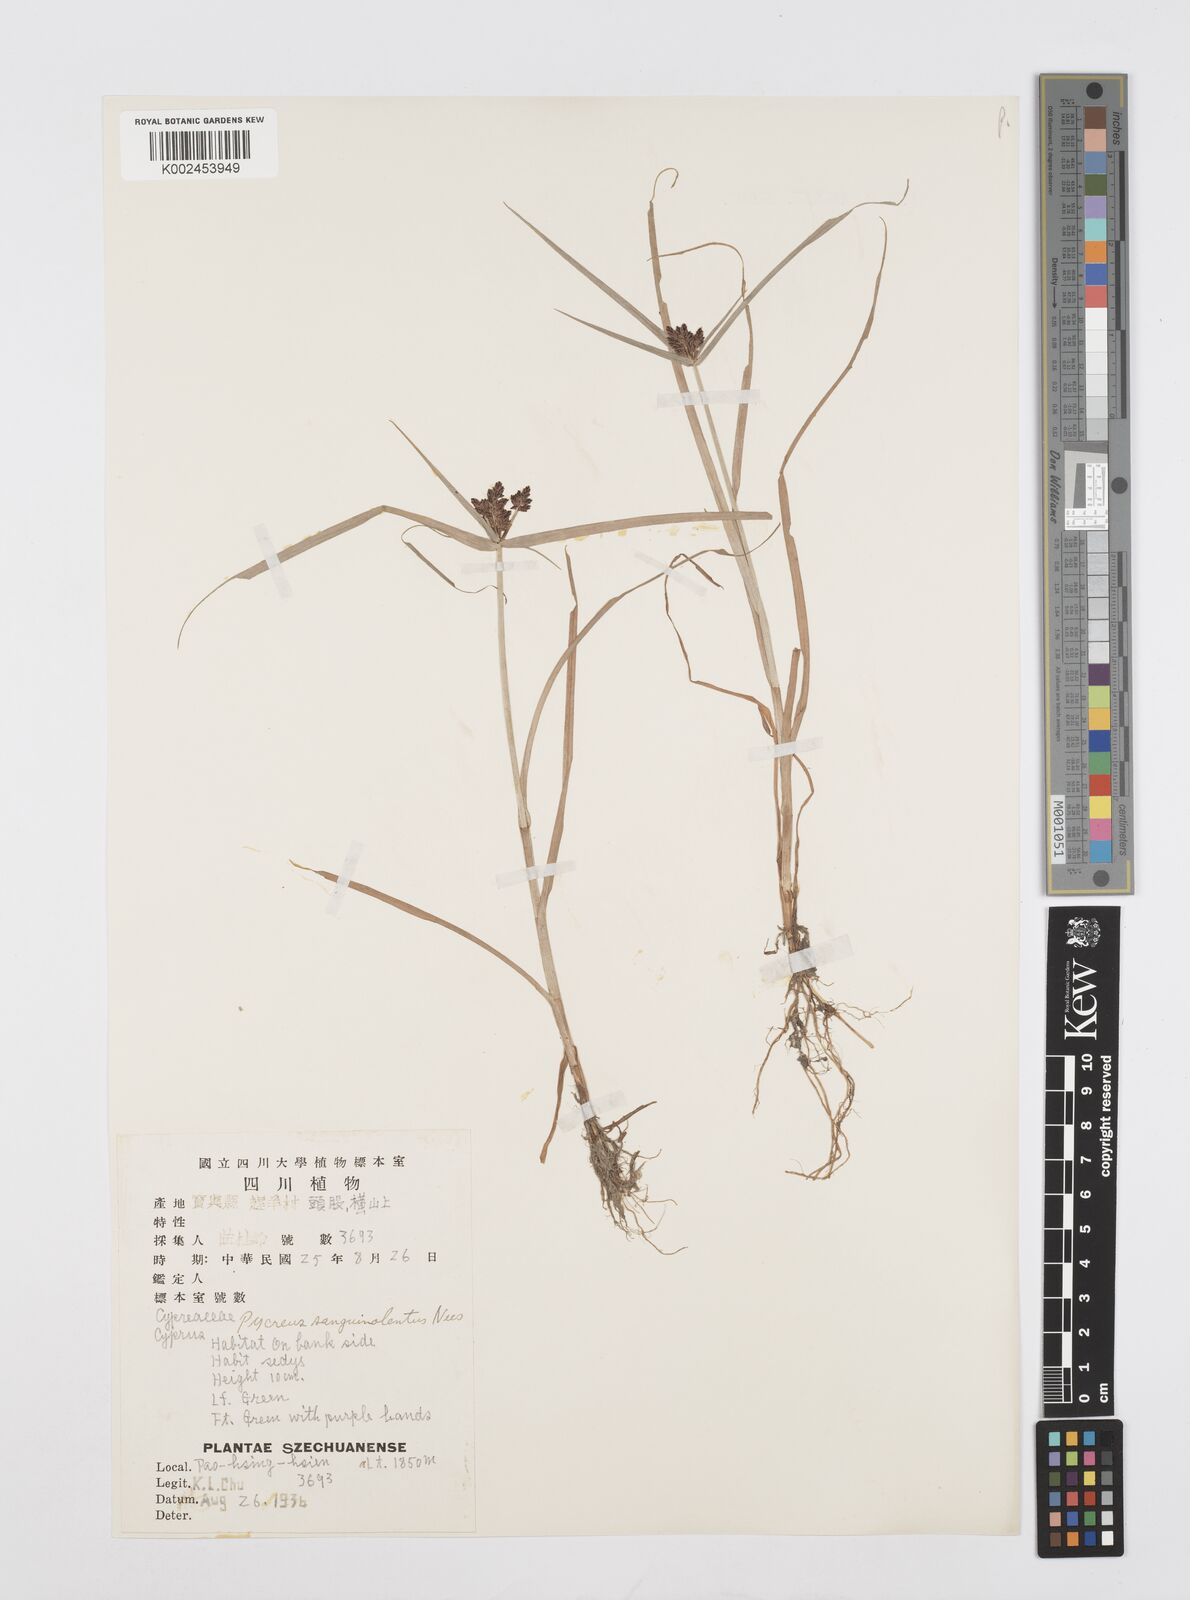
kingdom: Plantae
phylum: Tracheophyta
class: Liliopsida
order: Poales
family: Cyperaceae
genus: Cyperus
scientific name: Cyperus sanguinolentus
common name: Purpleglume flatsedge
